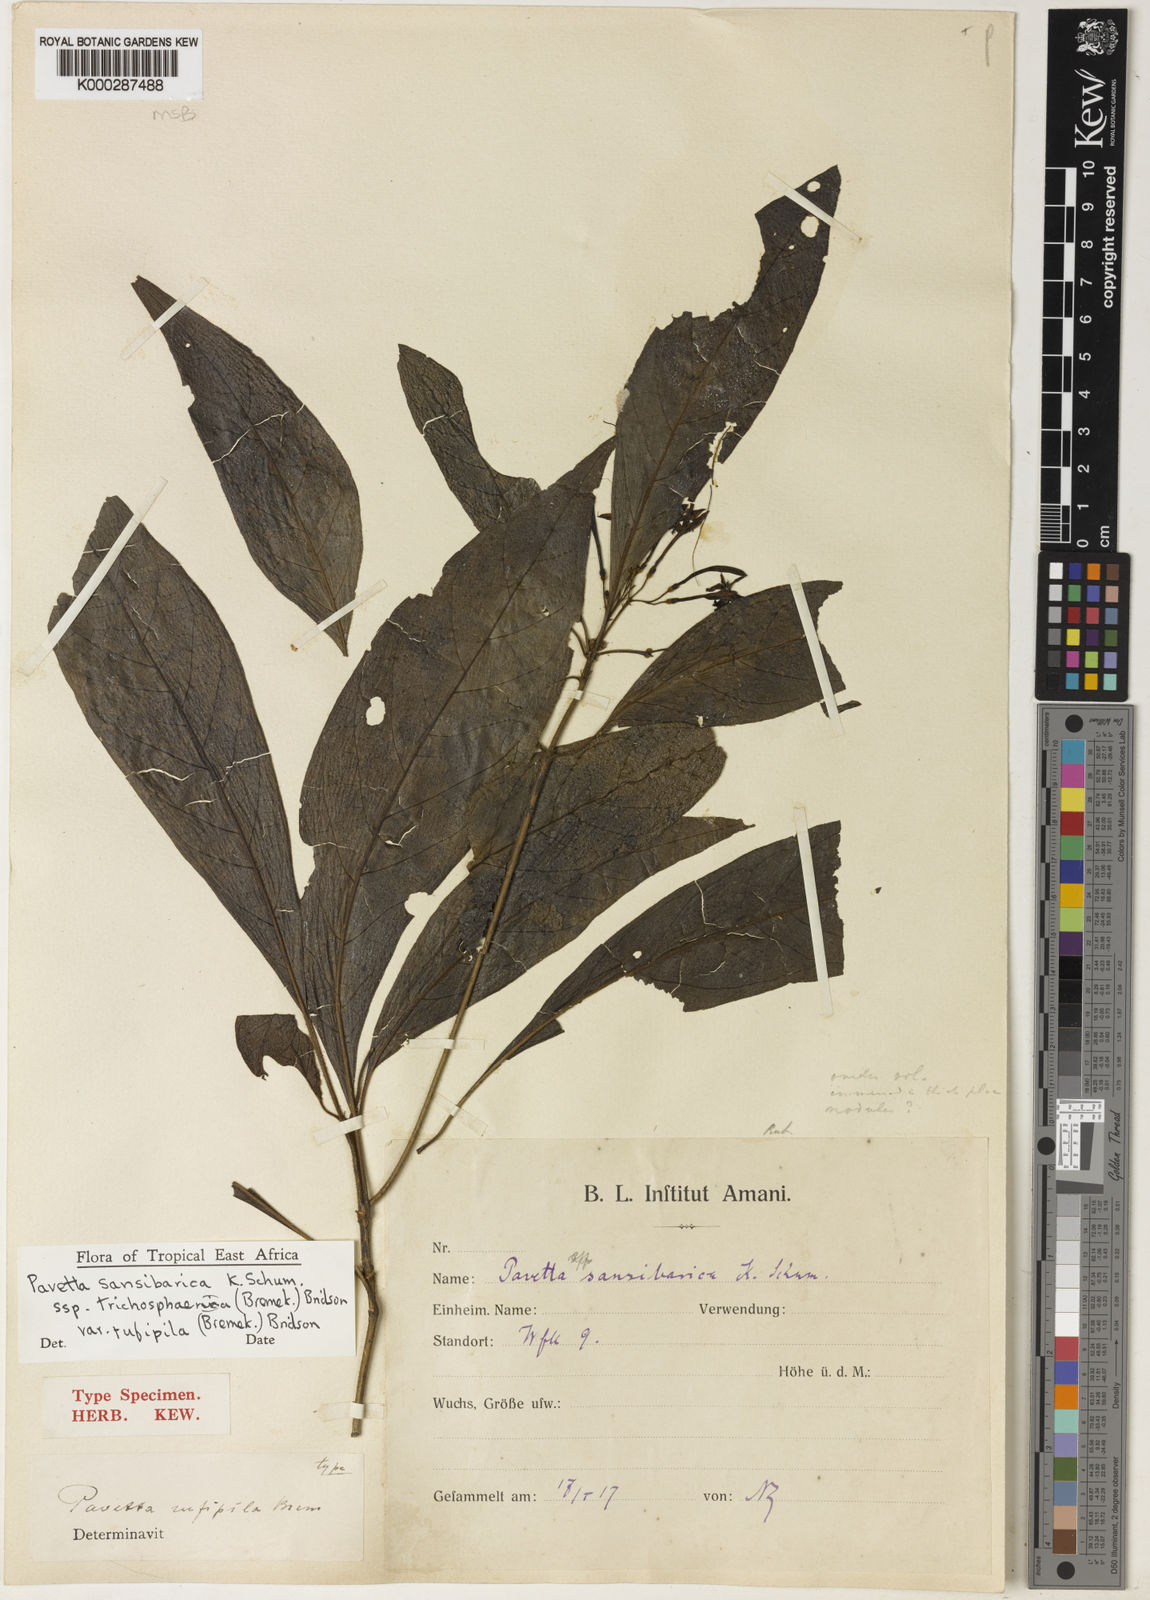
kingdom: Plantae
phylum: Tracheophyta
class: Magnoliopsida
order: Gentianales
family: Rubiaceae
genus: Pavetta
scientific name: Pavetta sansibarica
